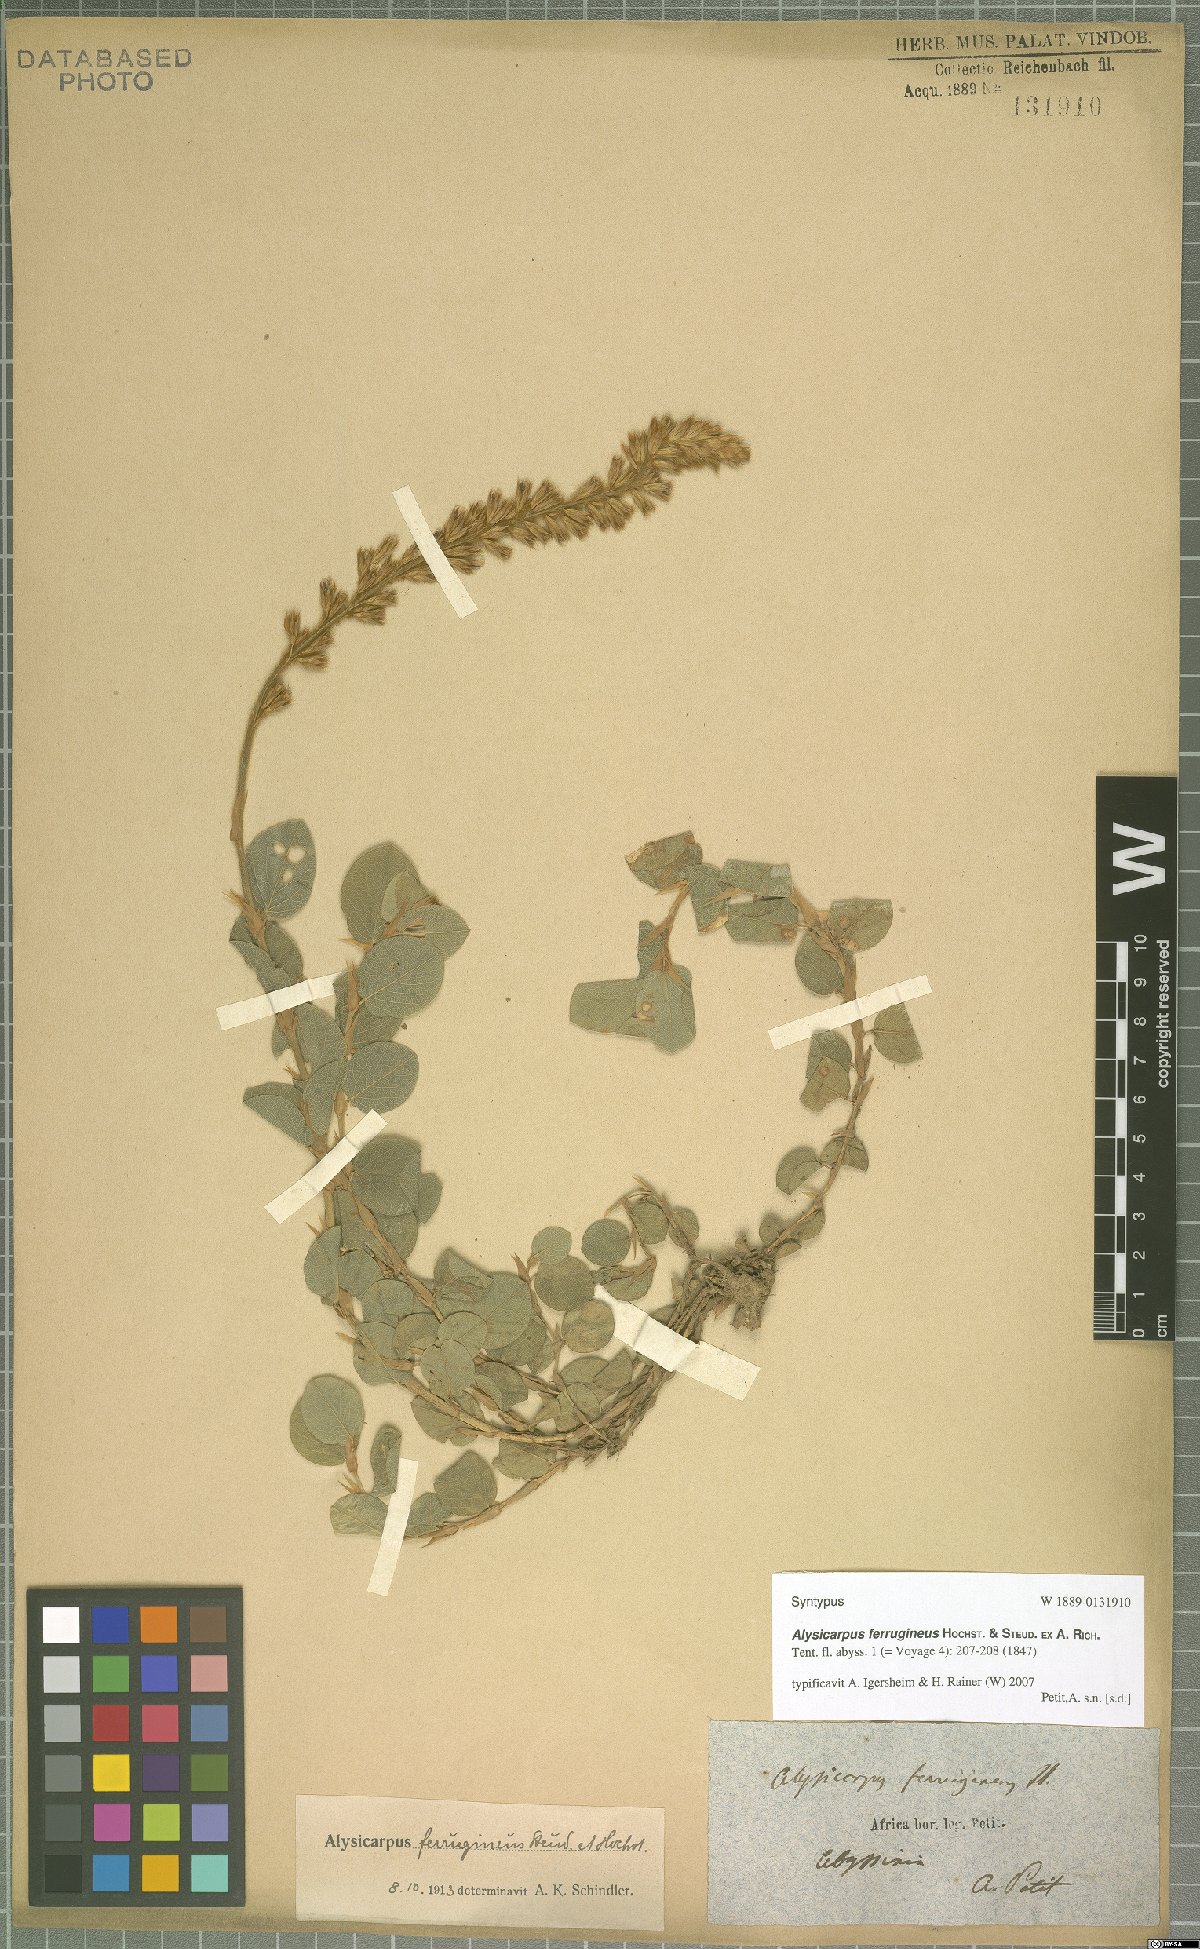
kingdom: Plantae
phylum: Tracheophyta
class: Magnoliopsida
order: Fabales
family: Fabaceae
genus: Alysicarpus
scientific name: Alysicarpus ferrugineus
